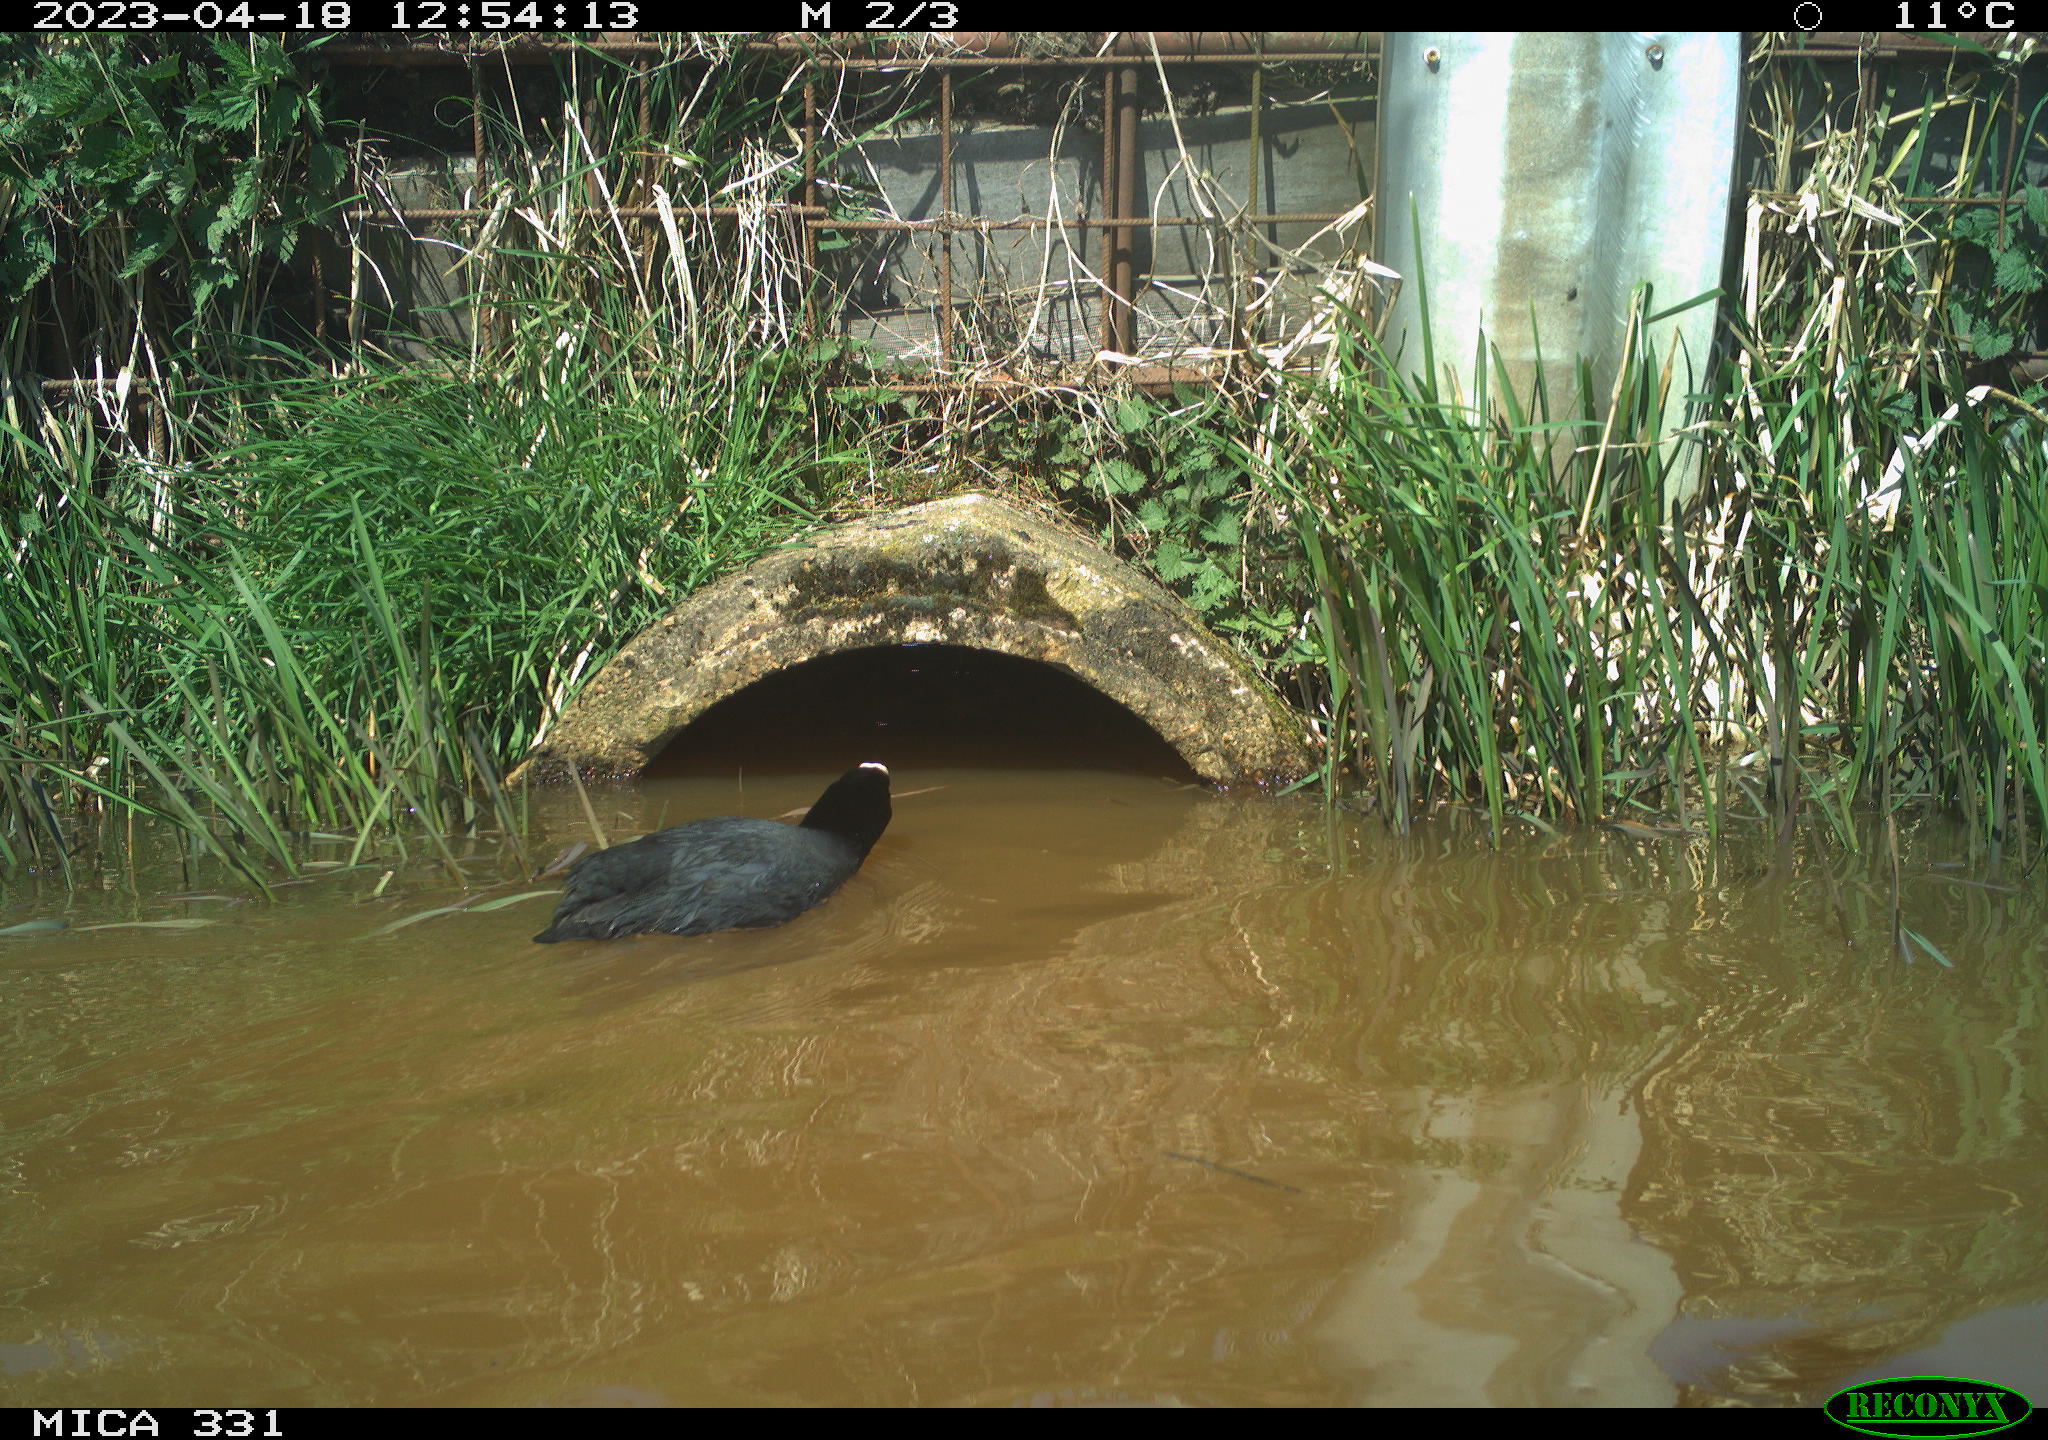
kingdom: Animalia
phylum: Chordata
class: Aves
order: Gruiformes
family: Rallidae
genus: Fulica
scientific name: Fulica atra
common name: Eurasian coot
